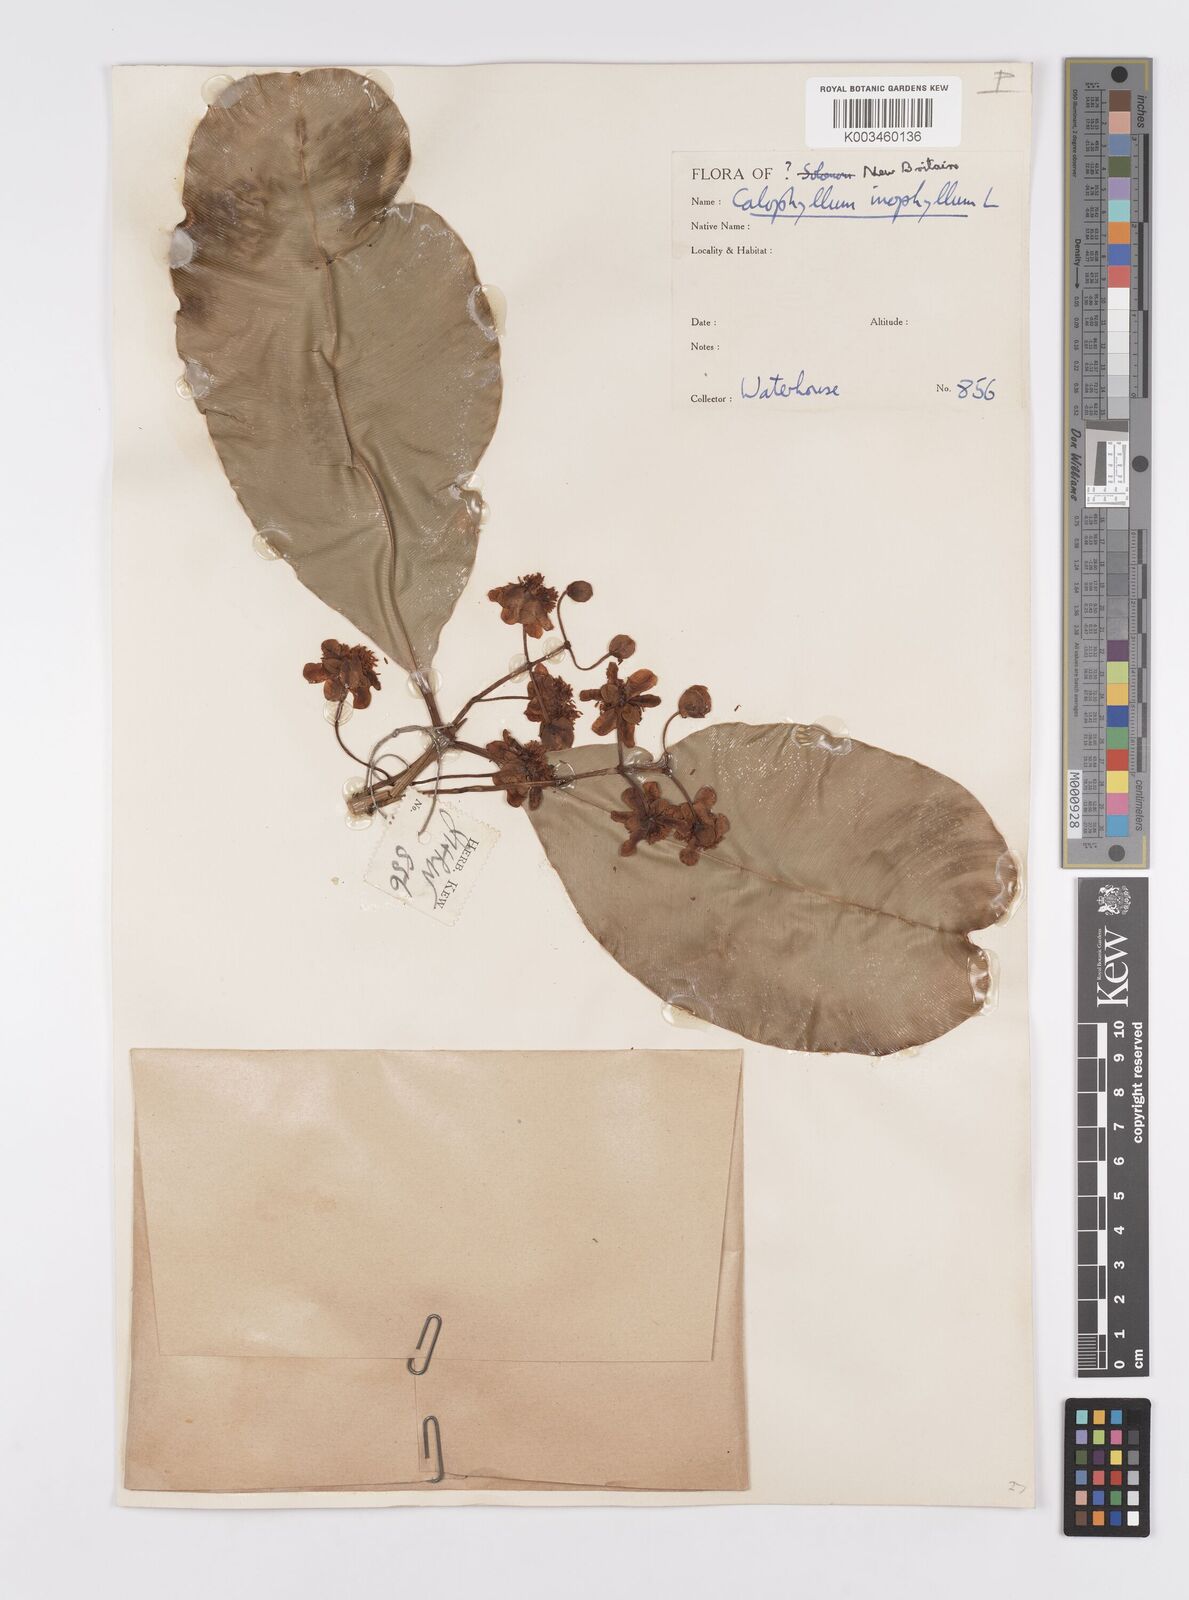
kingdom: Plantae
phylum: Tracheophyta
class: Magnoliopsida
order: Malpighiales
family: Calophyllaceae
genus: Calophyllum
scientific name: Calophyllum inophyllum
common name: Alexandrian laurel
